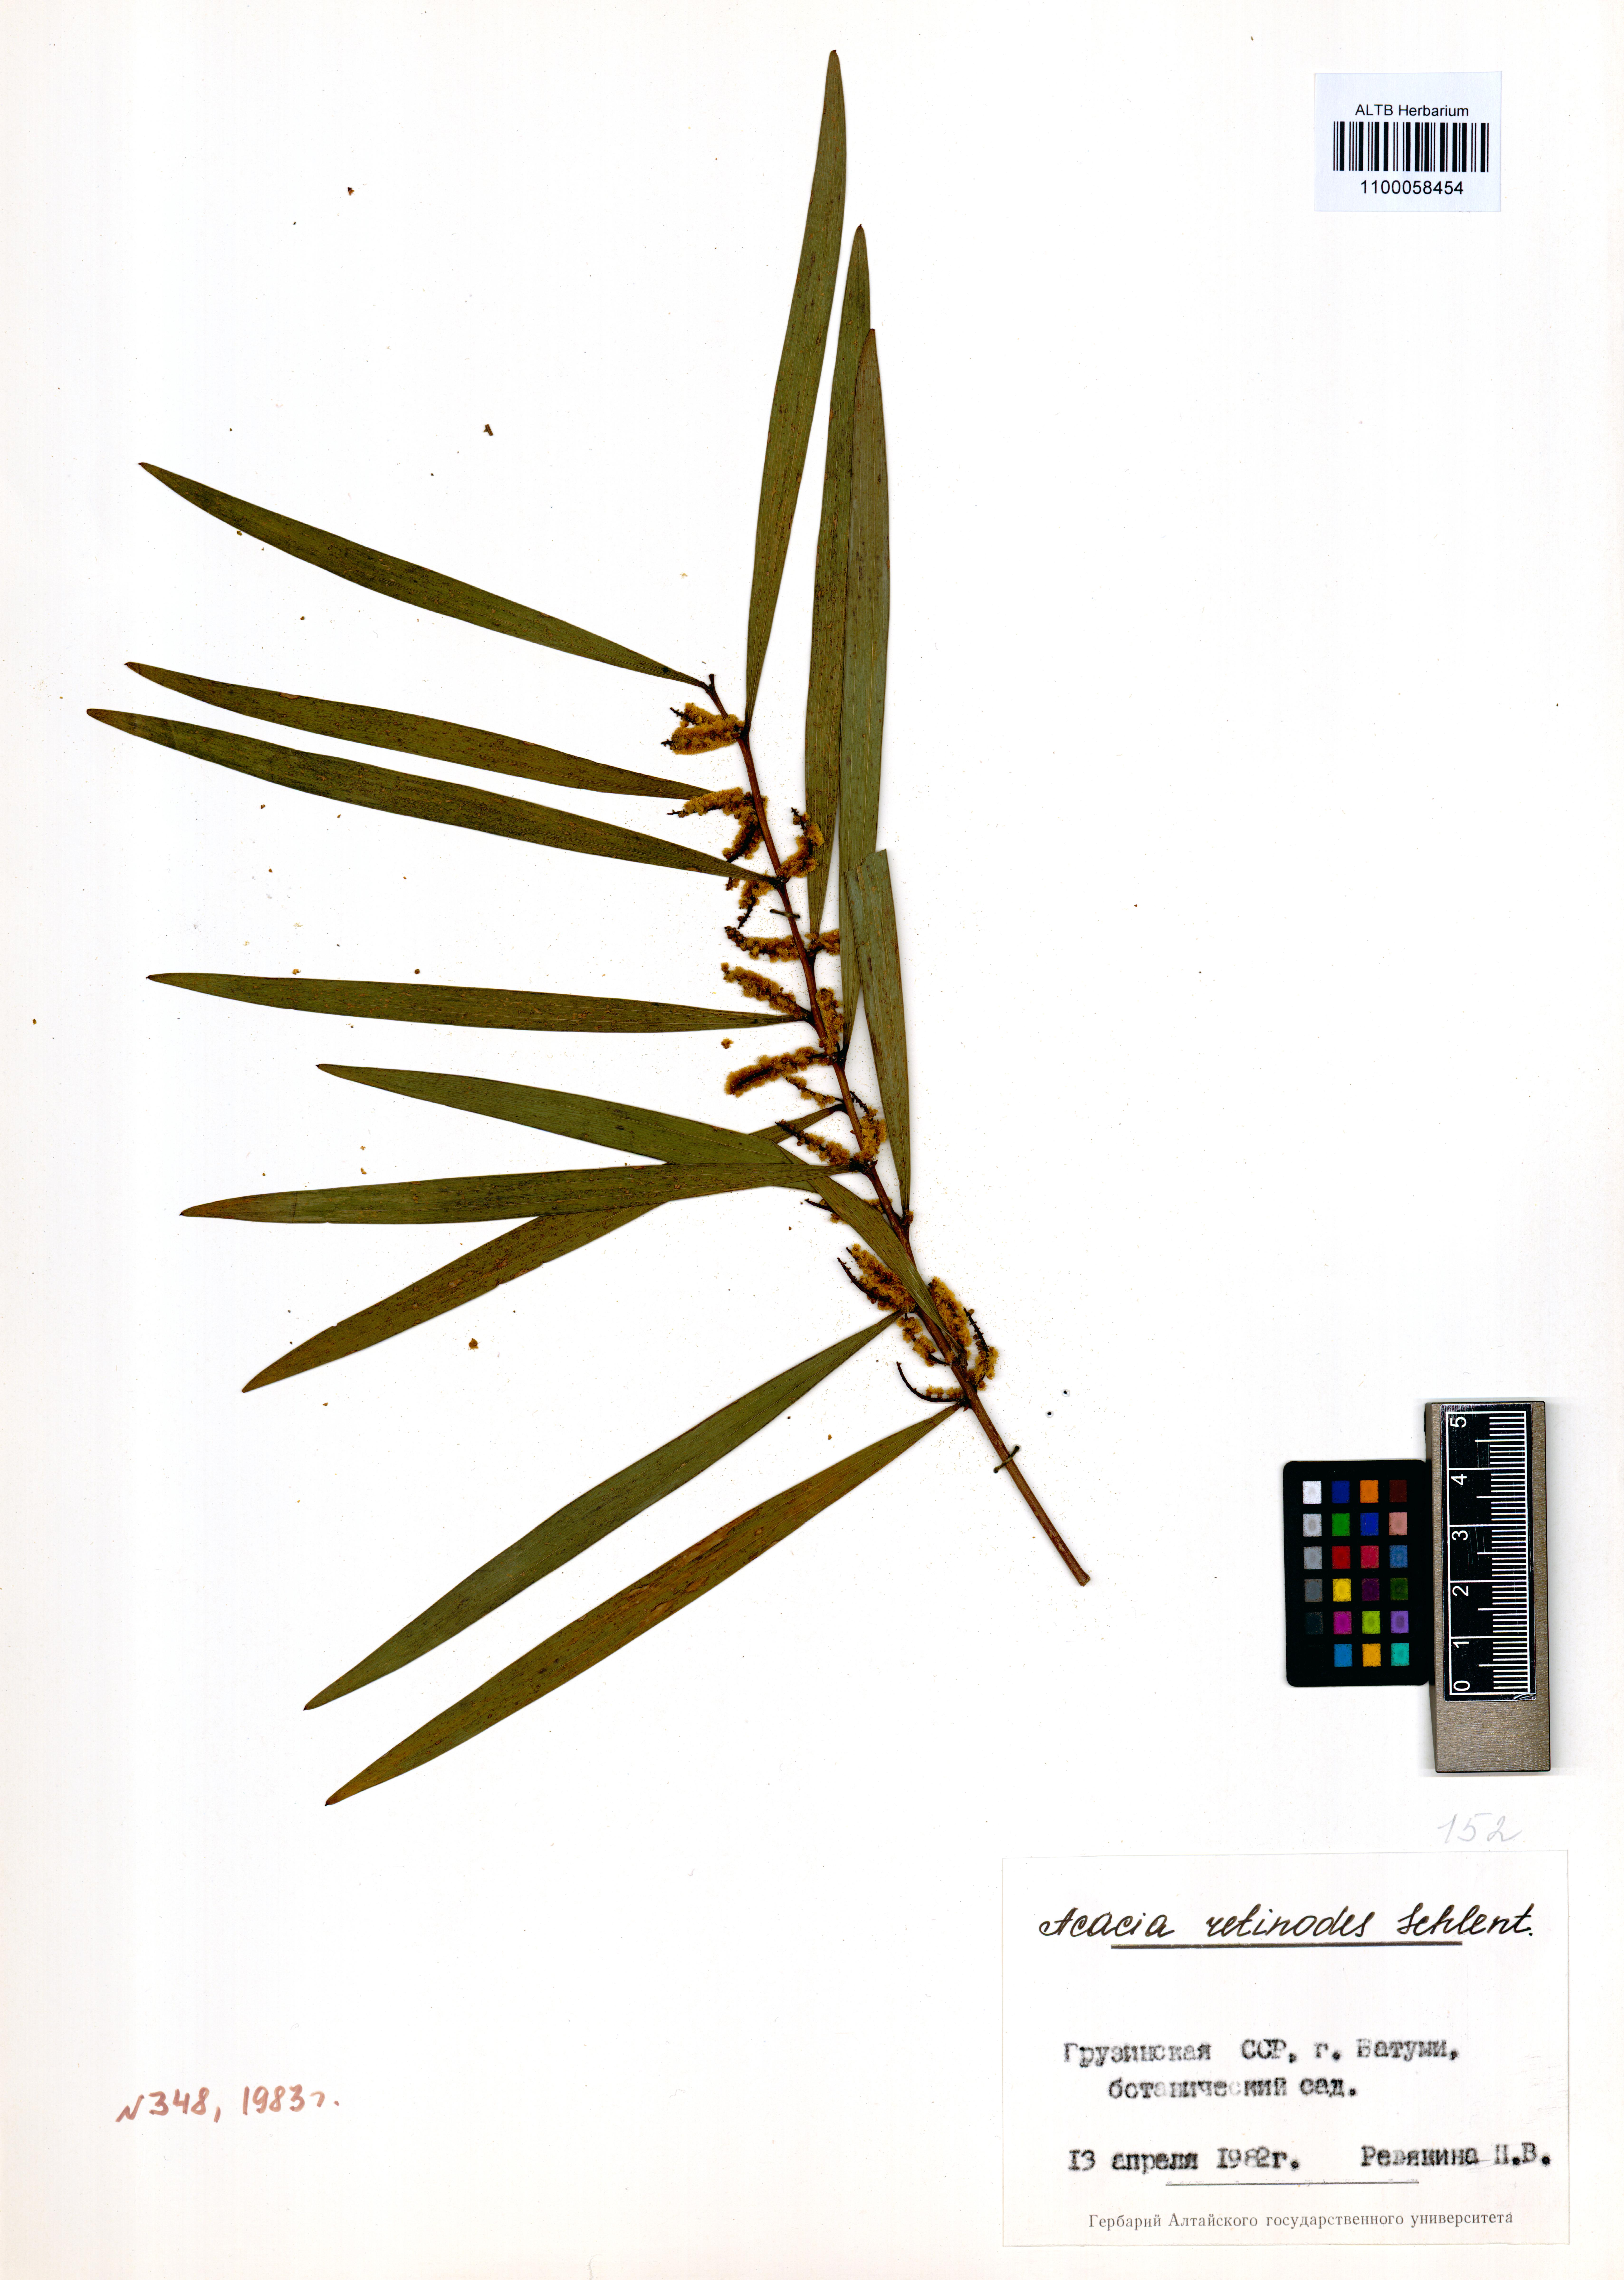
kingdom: Plantae
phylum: Tracheophyta
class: Magnoliopsida
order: Fabales
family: Fabaceae
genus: Acacia
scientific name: Acacia retinodes
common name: Silver wattle
